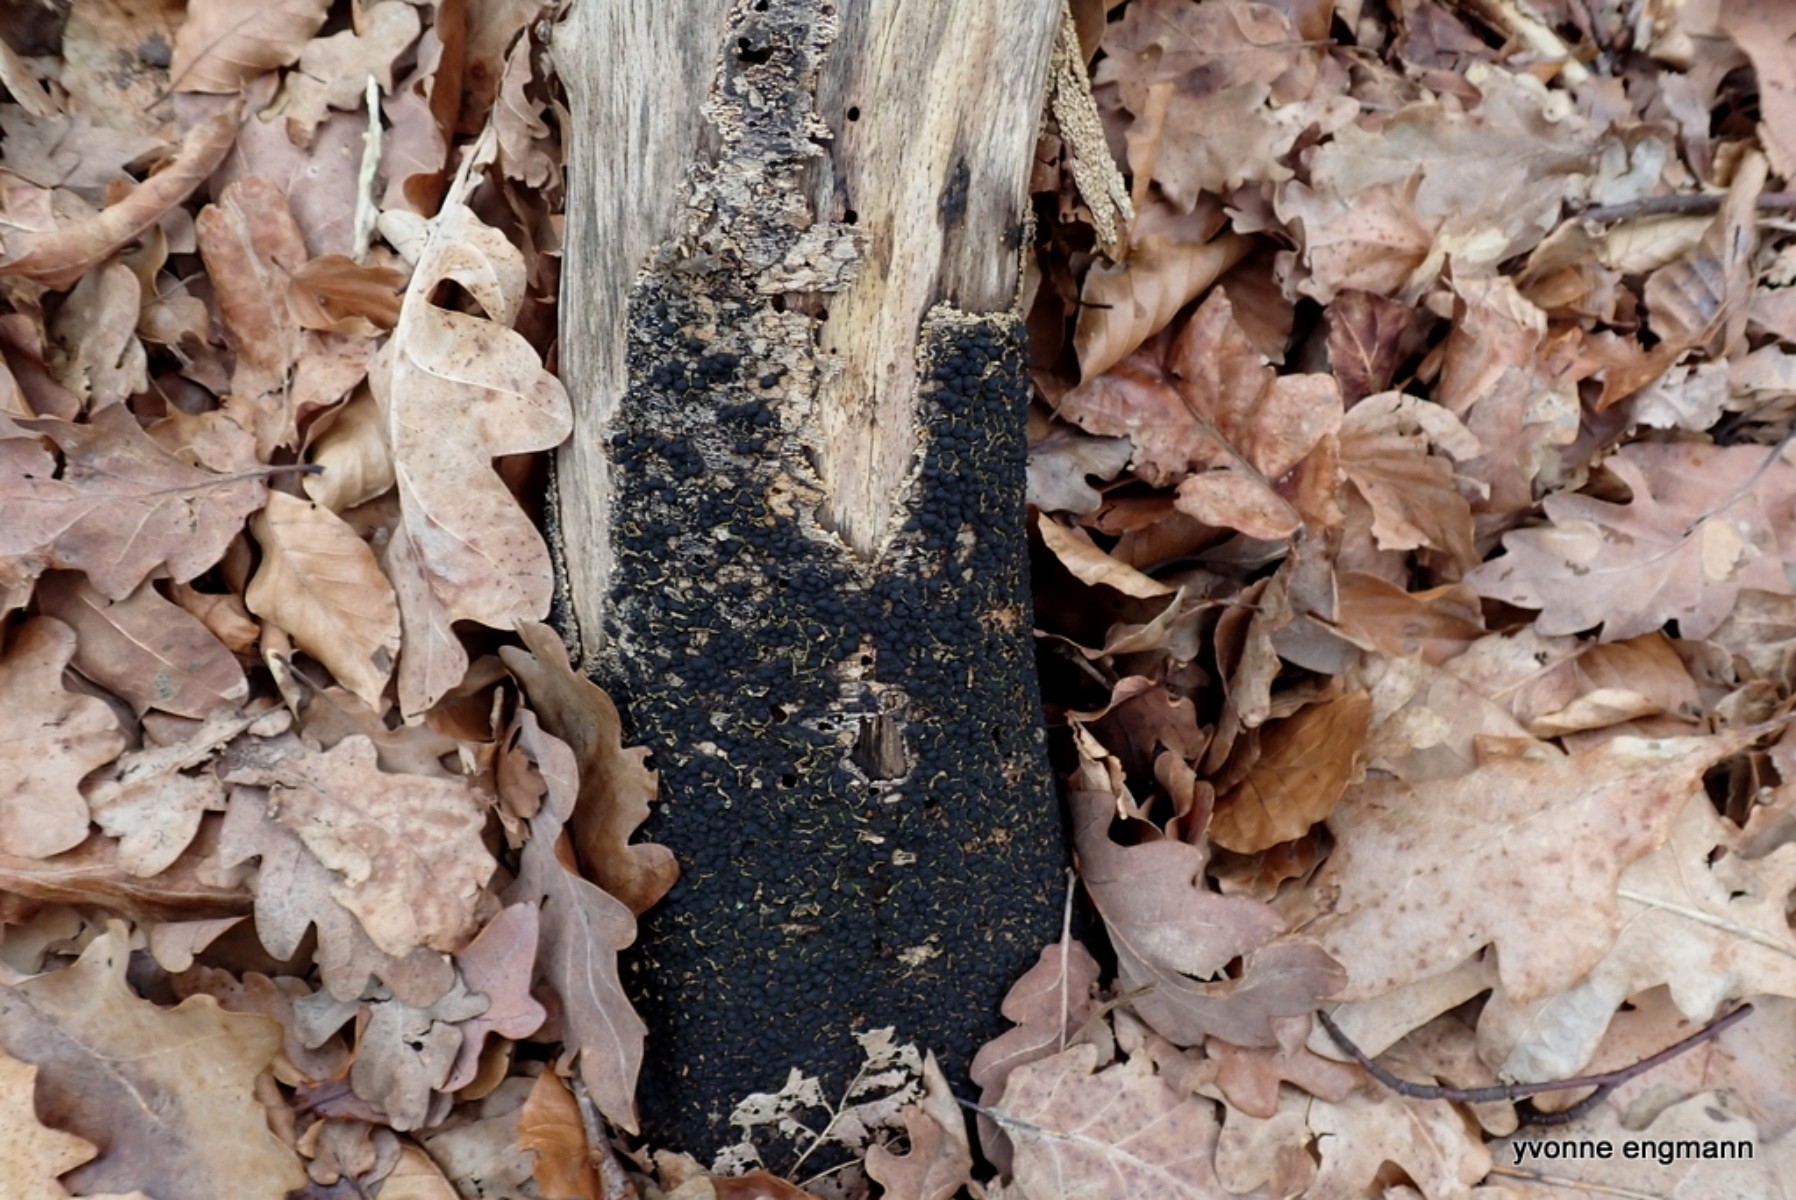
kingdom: Fungi
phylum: Ascomycota
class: Sordariomycetes
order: Xylariales
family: Melogrammataceae
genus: Melogramma
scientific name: Melogramma spiniferum
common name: bøgefod-kulhals
